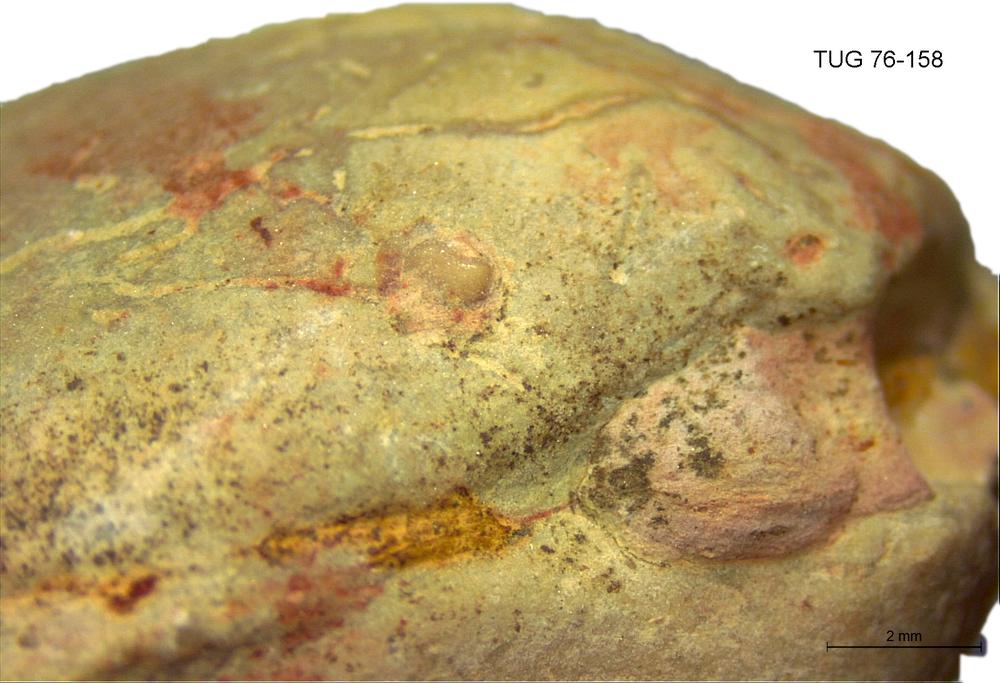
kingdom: Animalia
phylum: Brachiopoda
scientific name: Brachiopoda
